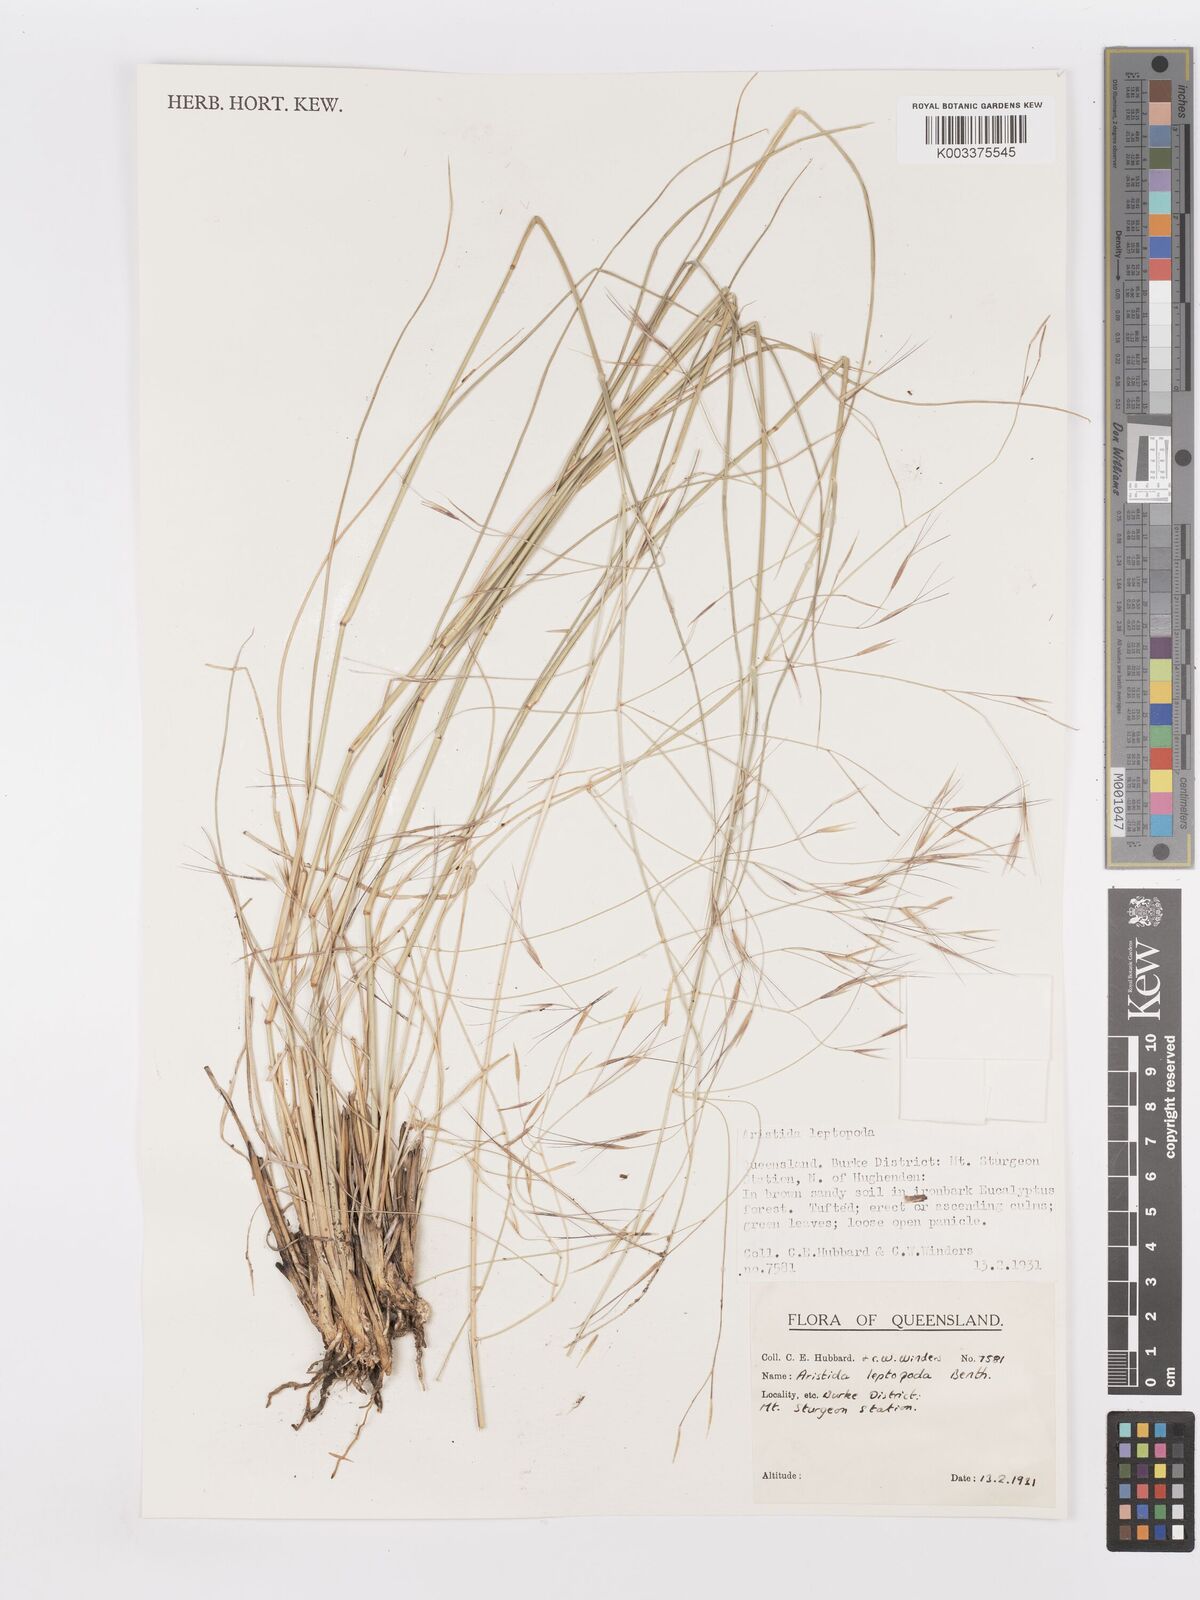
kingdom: Plantae
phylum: Tracheophyta
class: Liliopsida
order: Poales
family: Poaceae
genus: Aristida
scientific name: Aristida leptopoda
